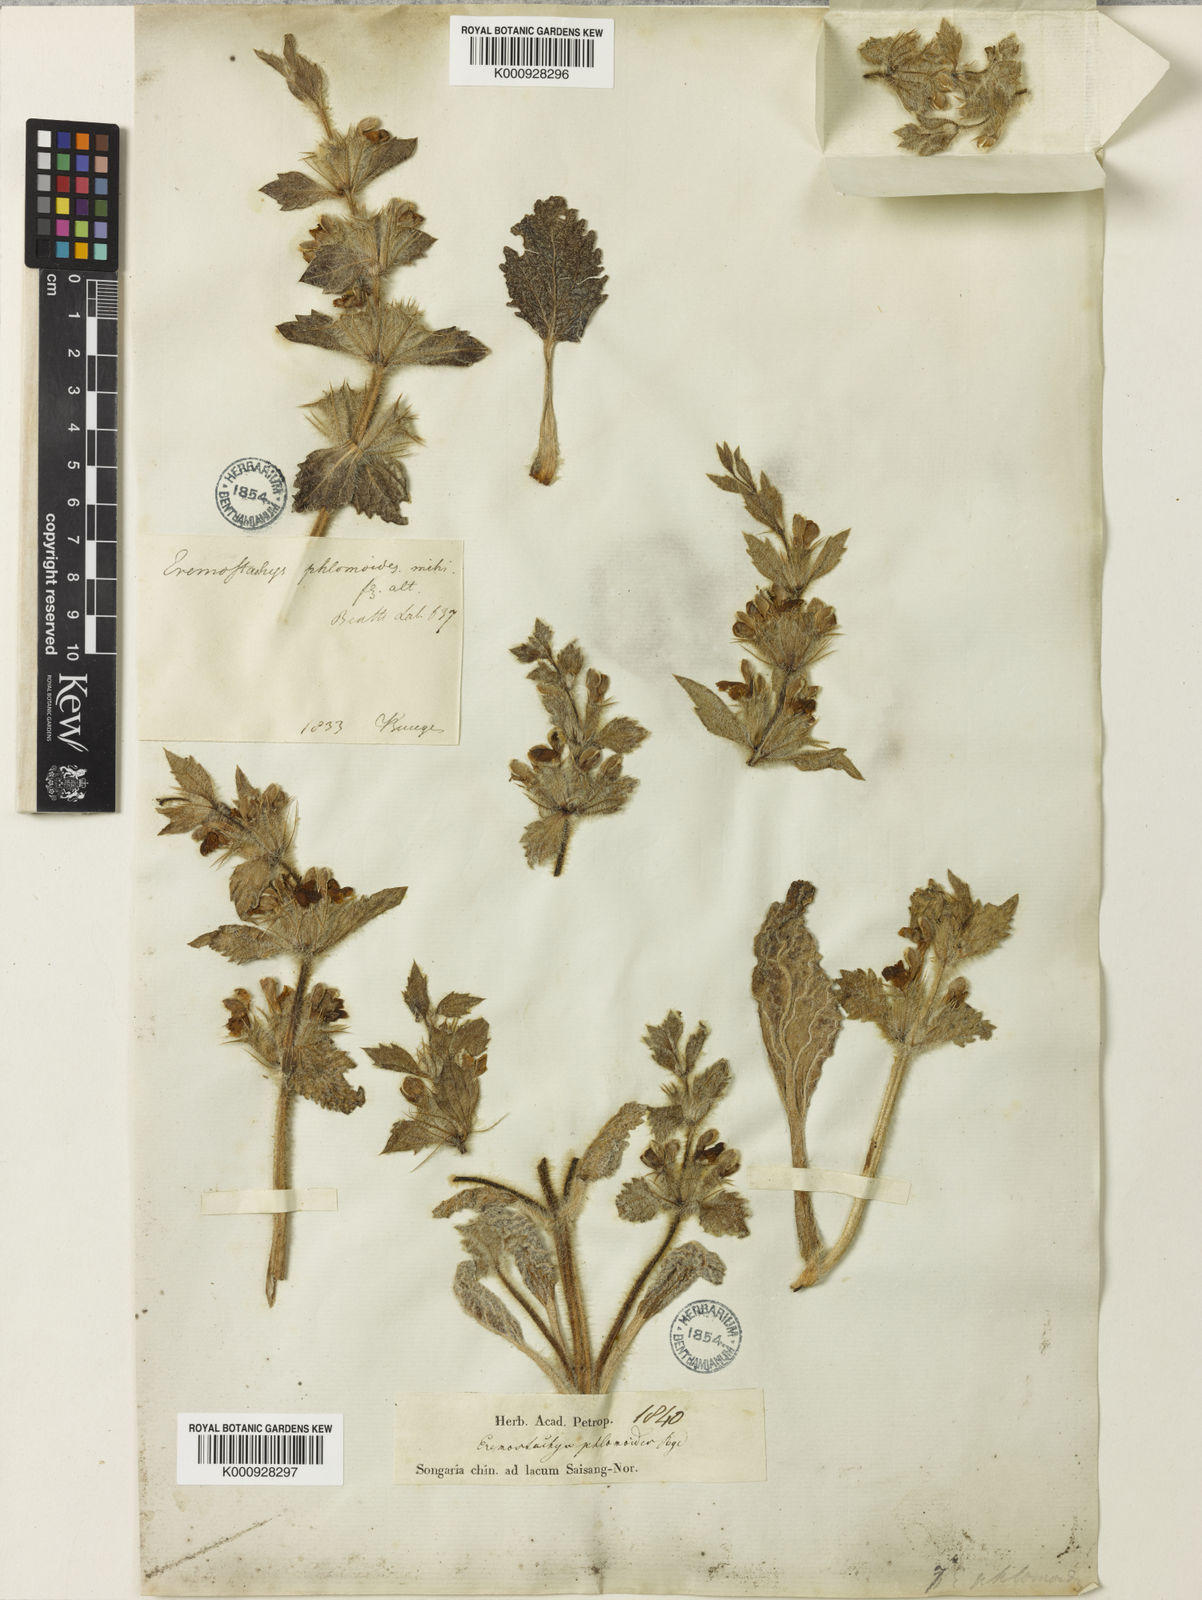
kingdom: Plantae
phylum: Tracheophyta
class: Magnoliopsida
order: Lamiales
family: Lamiaceae
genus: Phlomoides
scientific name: Phlomoides multifurcata
